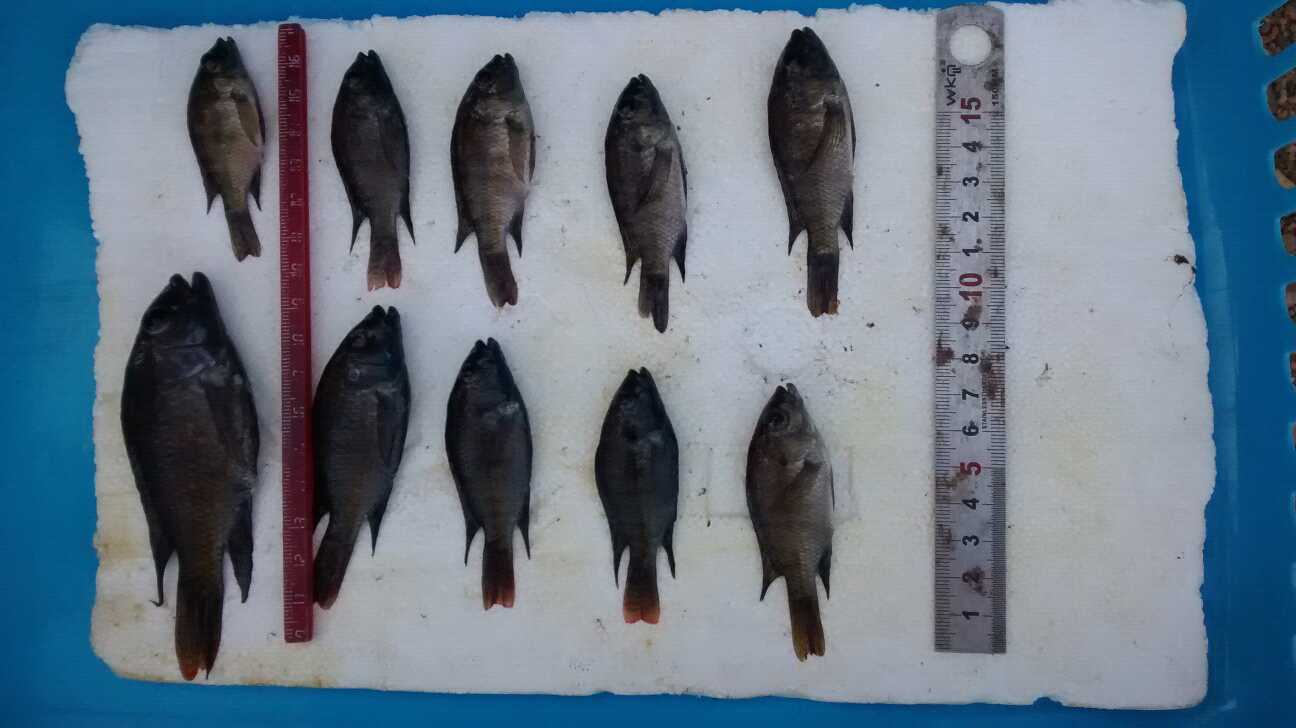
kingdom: Animalia
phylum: Chordata
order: Perciformes
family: Cichlidae
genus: Oreochromis
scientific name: Oreochromis spilurus
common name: Sabaki tilapia
